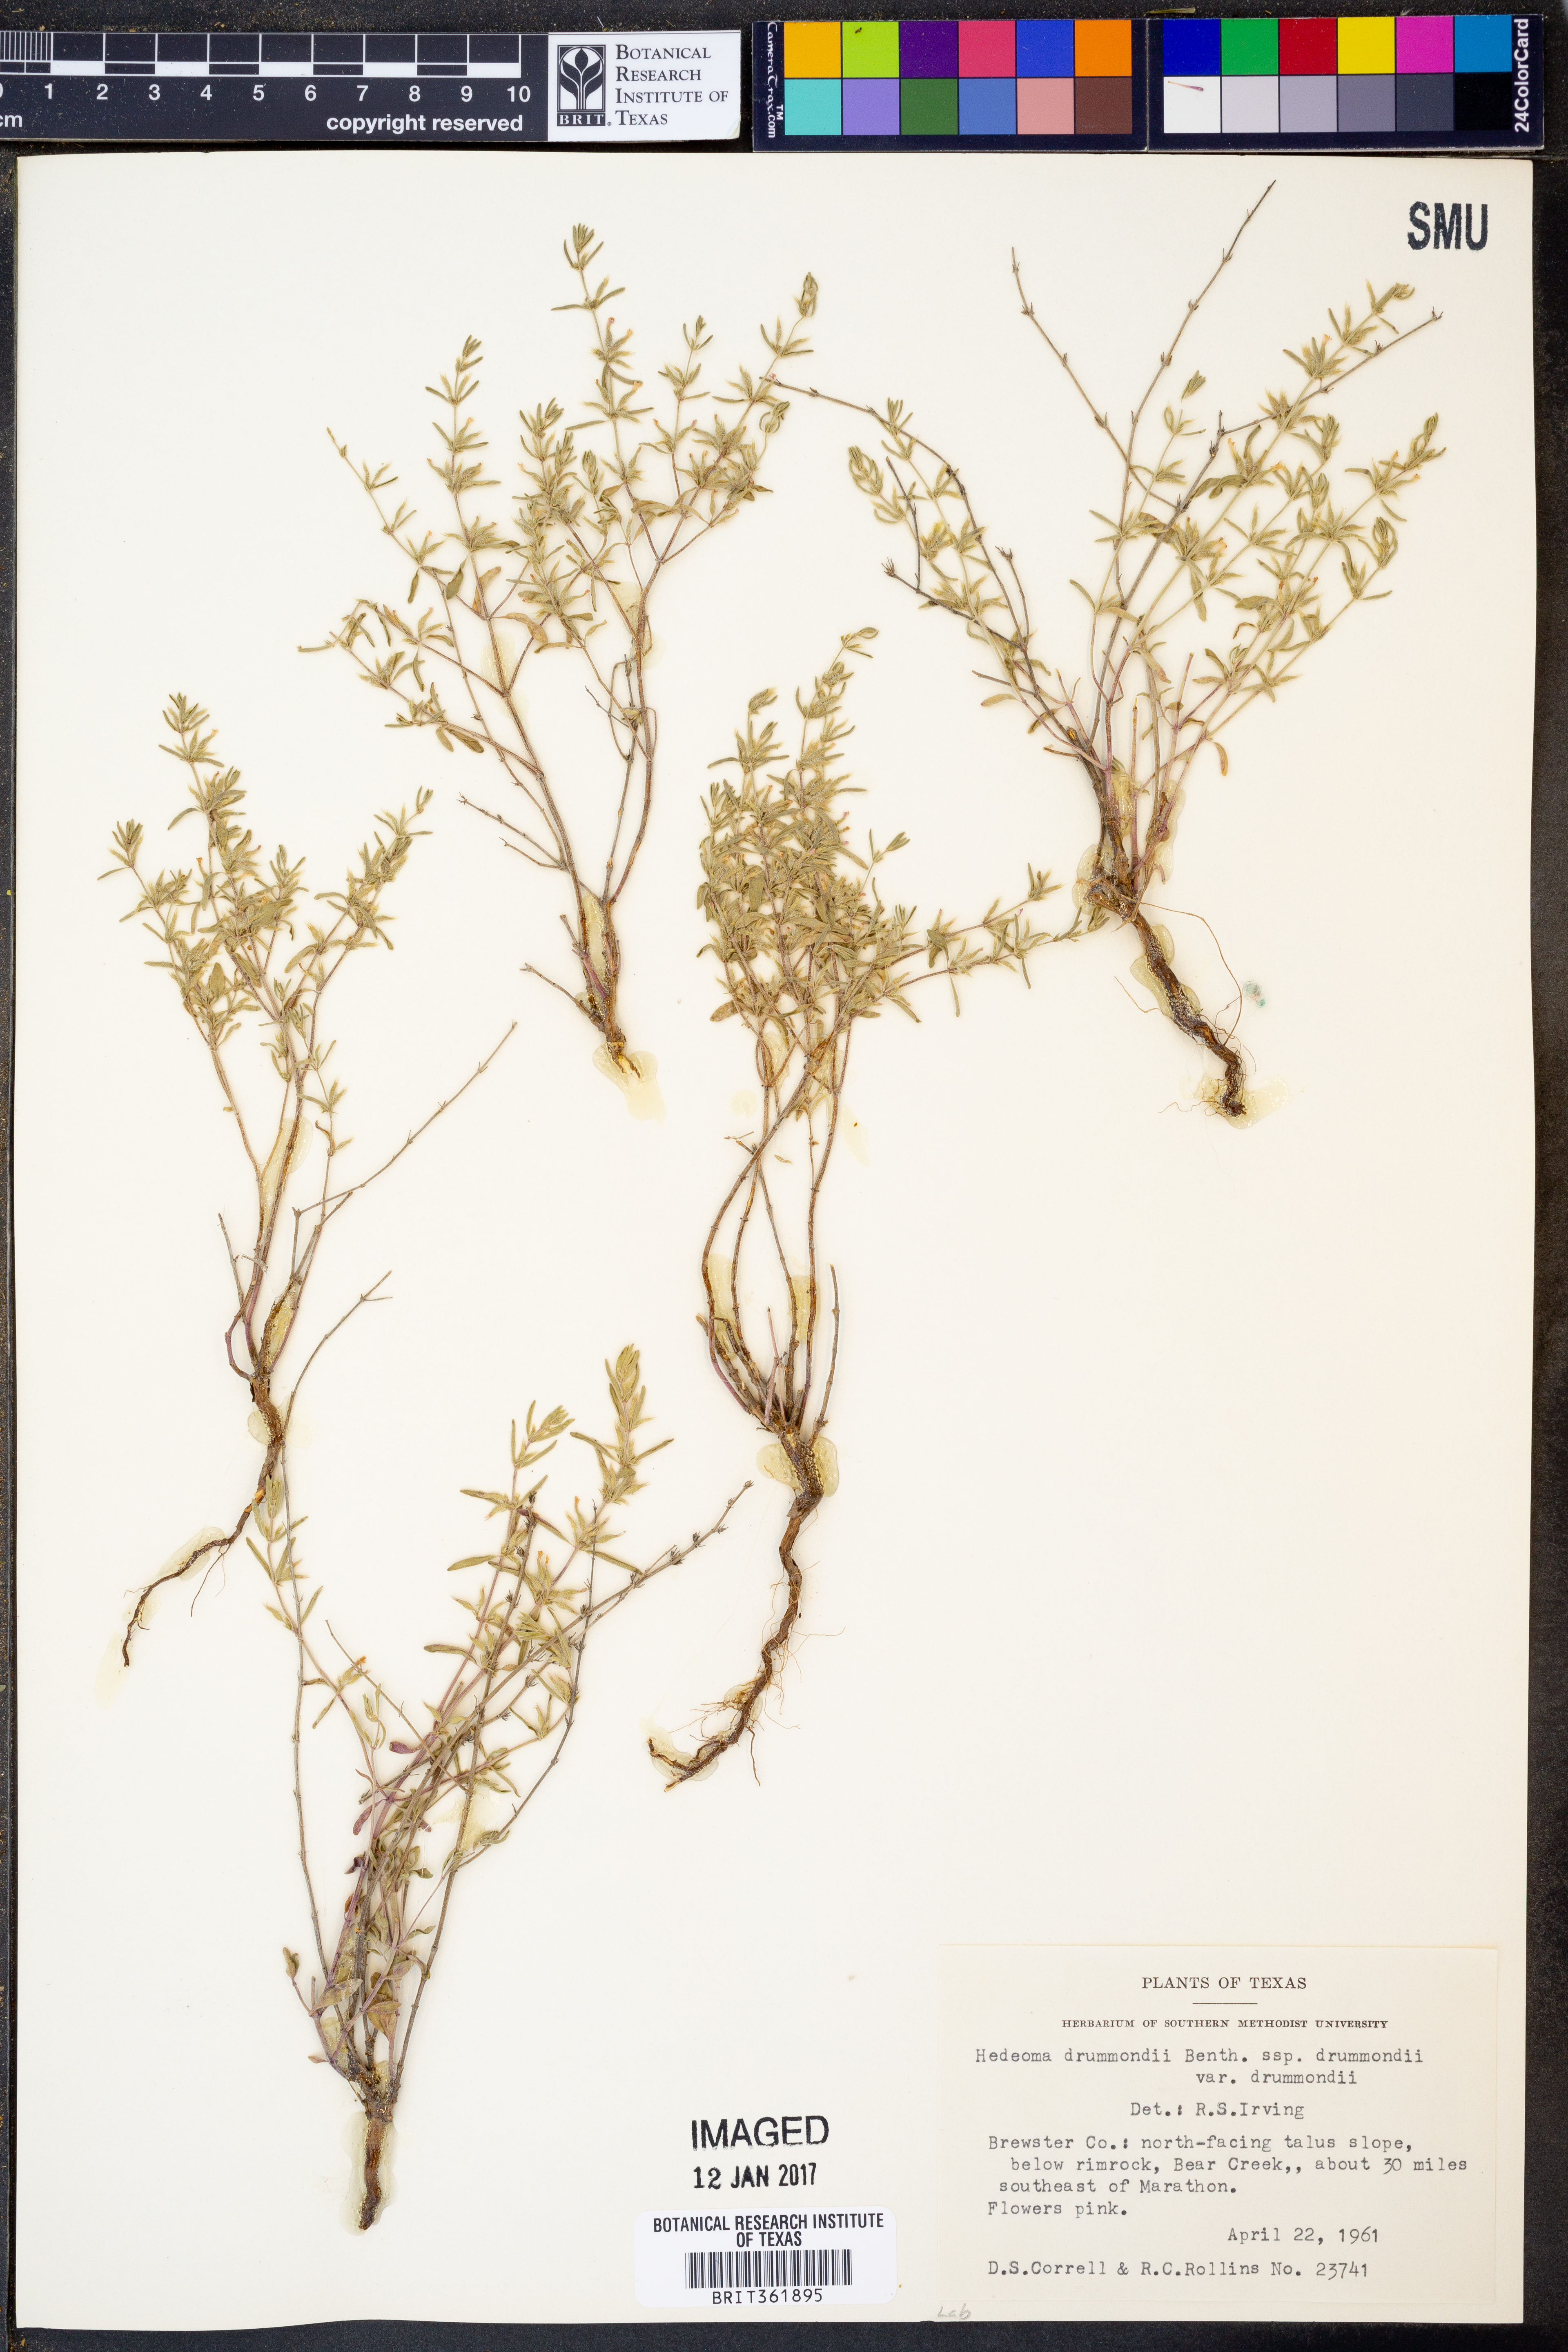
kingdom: Plantae
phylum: Tracheophyta
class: Magnoliopsida
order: Lamiales
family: Lamiaceae
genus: Hedeoma
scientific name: Hedeoma drummondii
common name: New mexico pennyroyal
